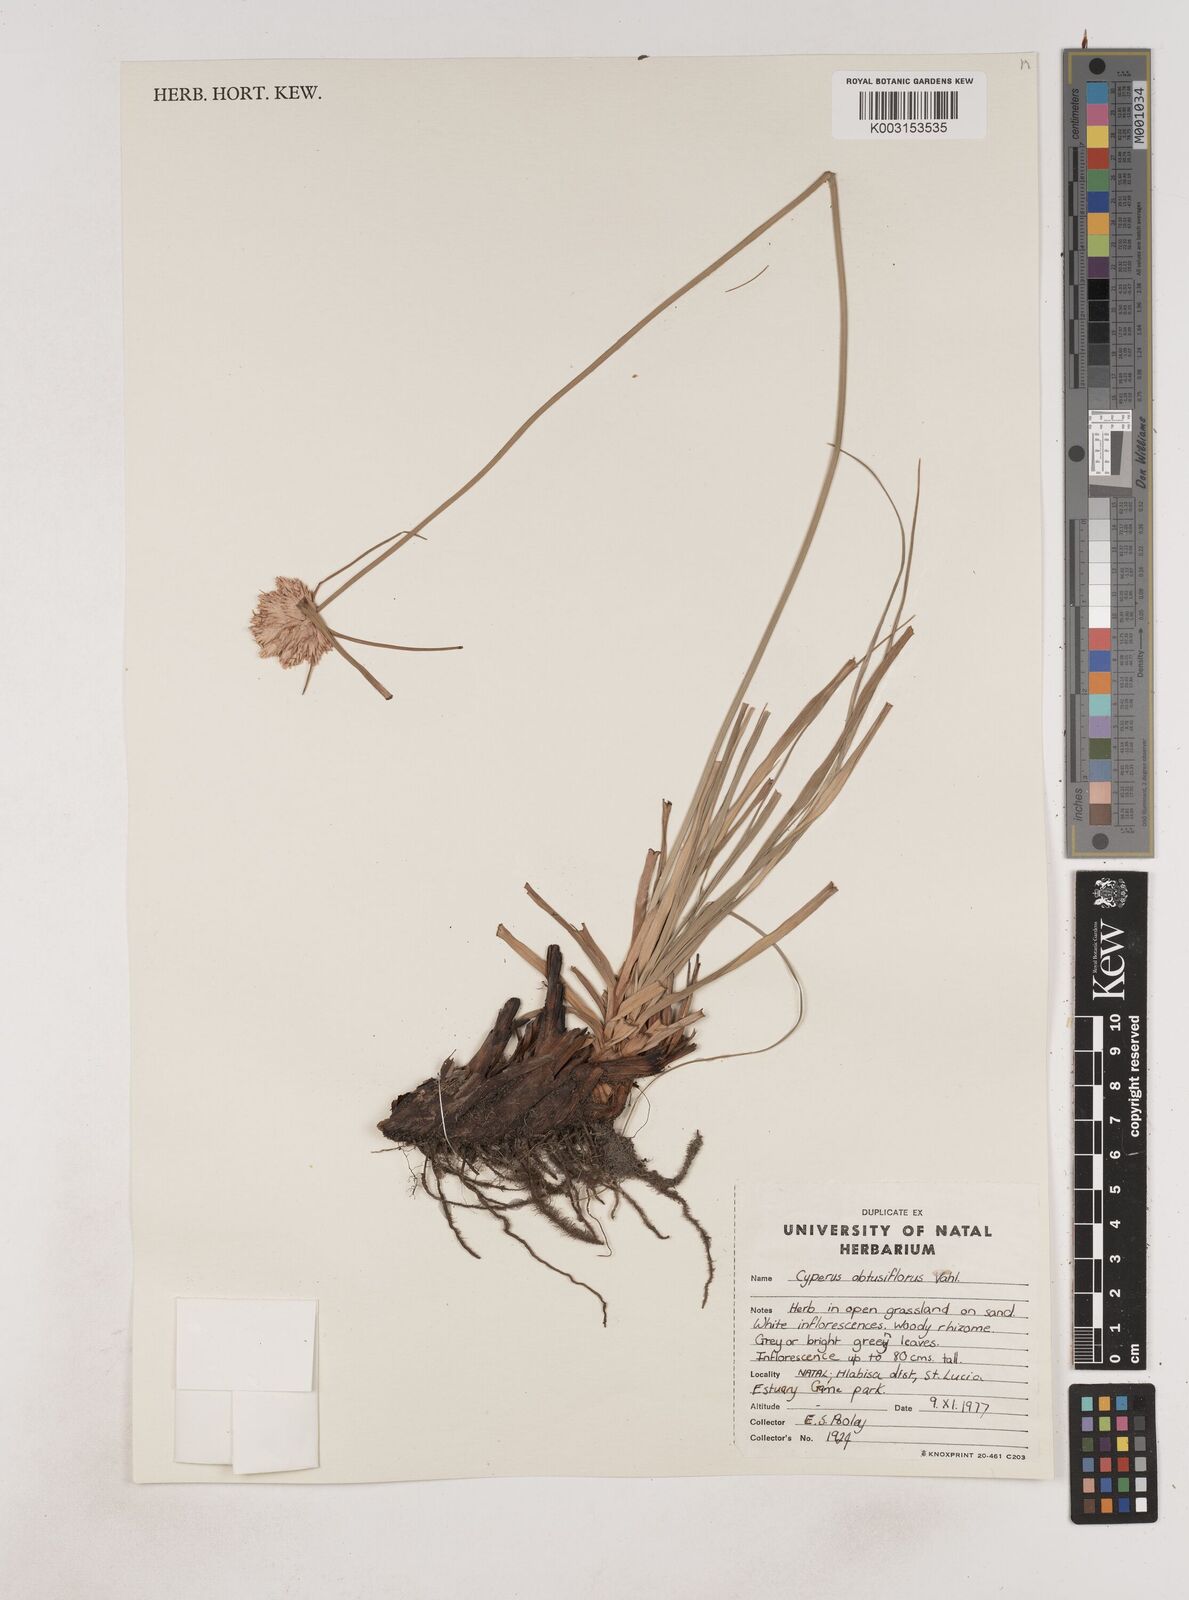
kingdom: Plantae
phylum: Tracheophyta
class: Liliopsida
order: Poales
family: Cyperaceae
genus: Cyperus
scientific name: Cyperus niveus
